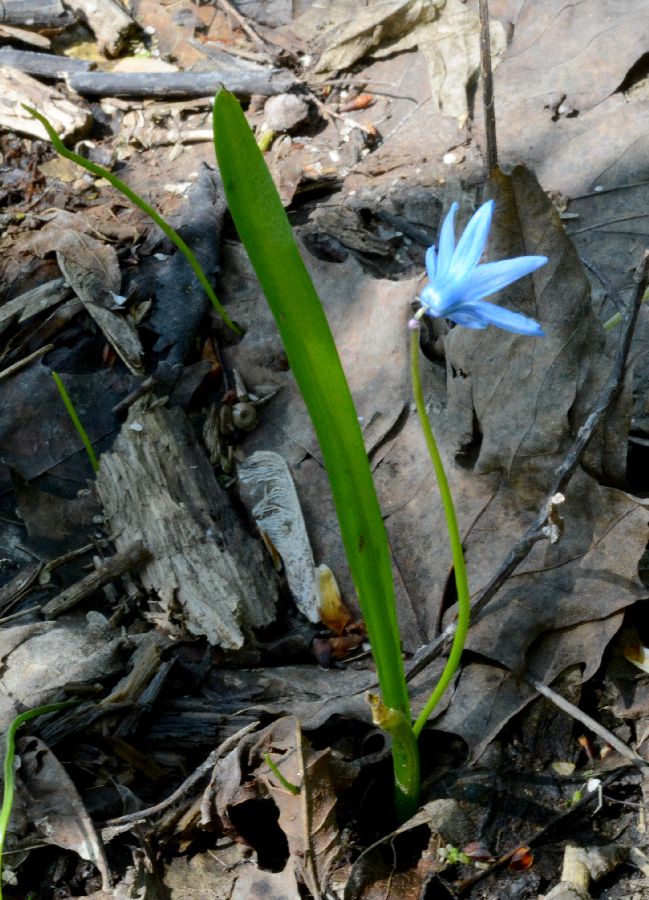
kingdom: Plantae
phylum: Tracheophyta
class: Liliopsida
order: Asparagales
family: Asparagaceae
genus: Scilla
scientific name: Scilla siberica
